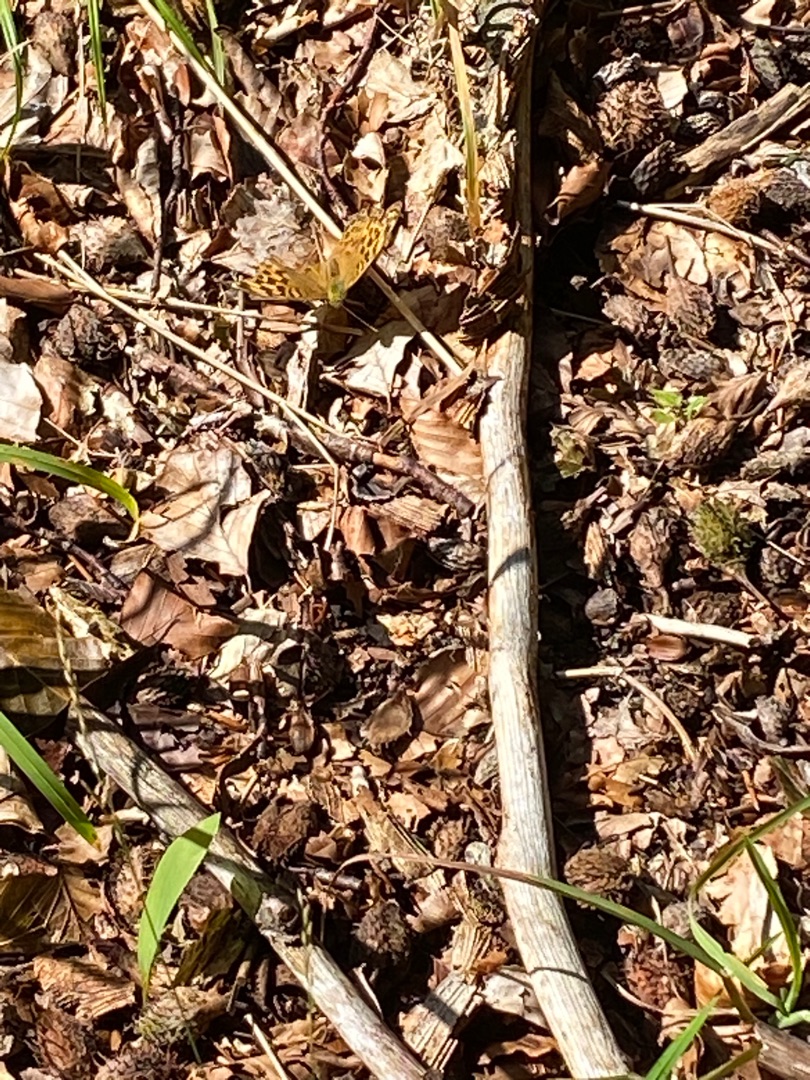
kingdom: Animalia
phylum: Arthropoda
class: Insecta
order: Lepidoptera
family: Nymphalidae
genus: Argynnis
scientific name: Argynnis paphia
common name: Kejserkåbe
